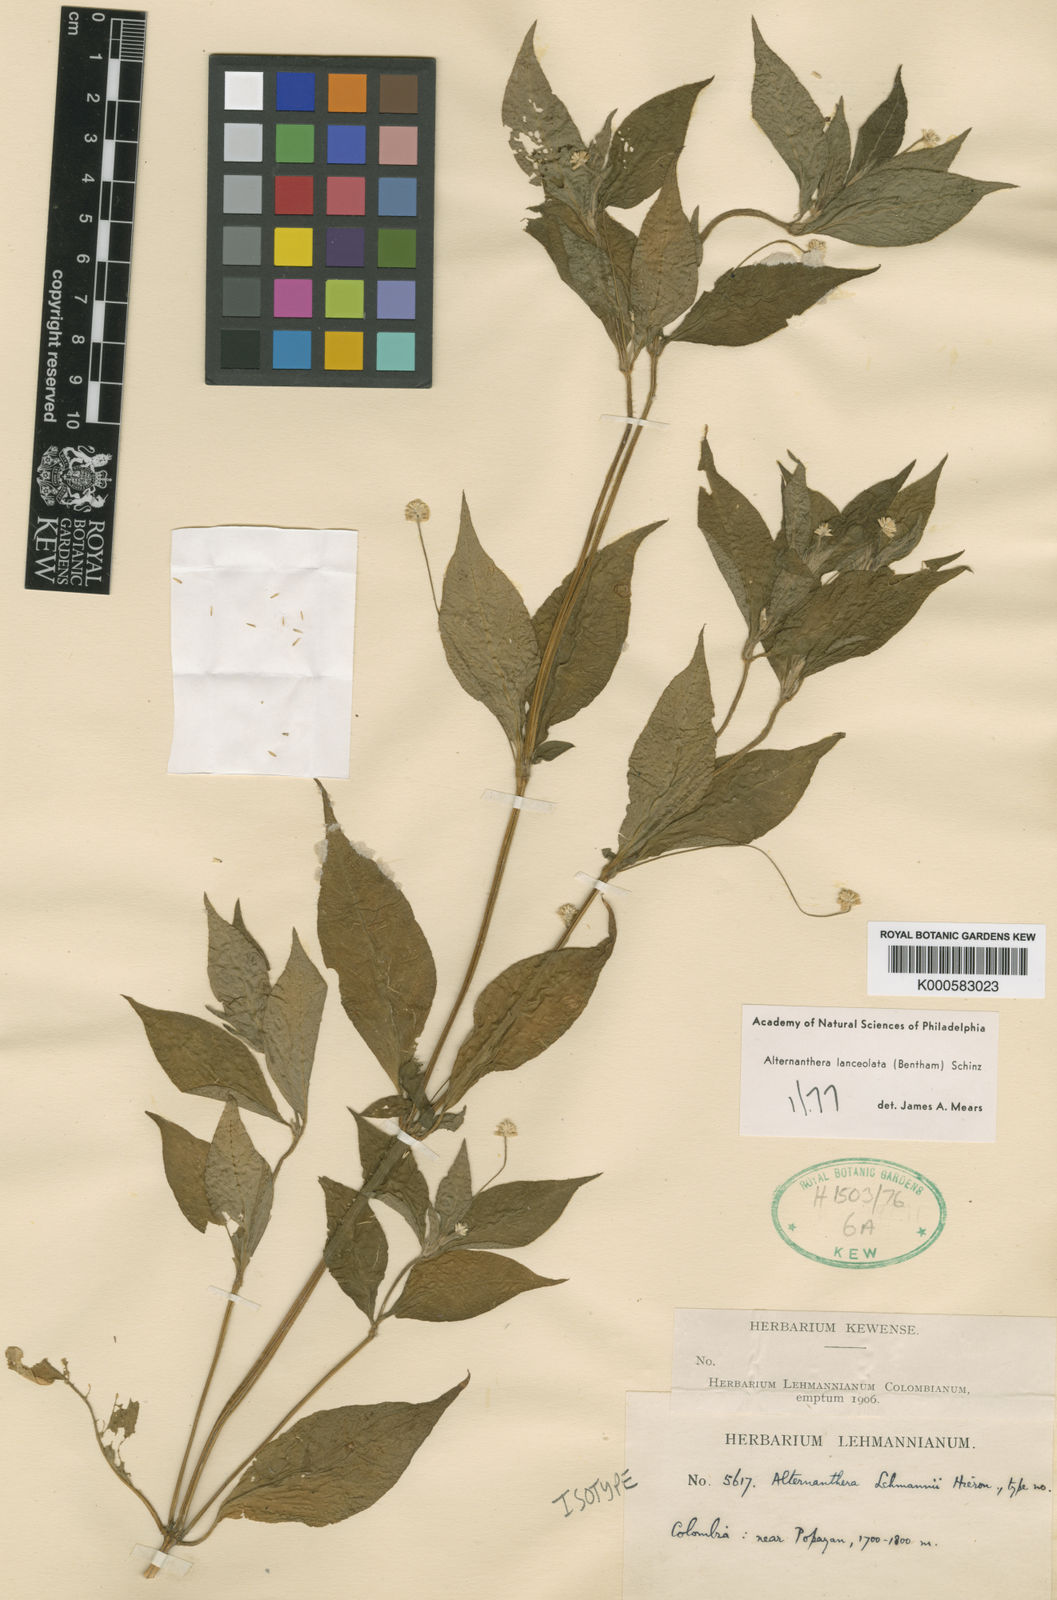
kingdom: Plantae
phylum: Tracheophyta
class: Magnoliopsida
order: Caryophyllales
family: Amaranthaceae
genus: Alternanthera
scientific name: Alternanthera lanceolata
